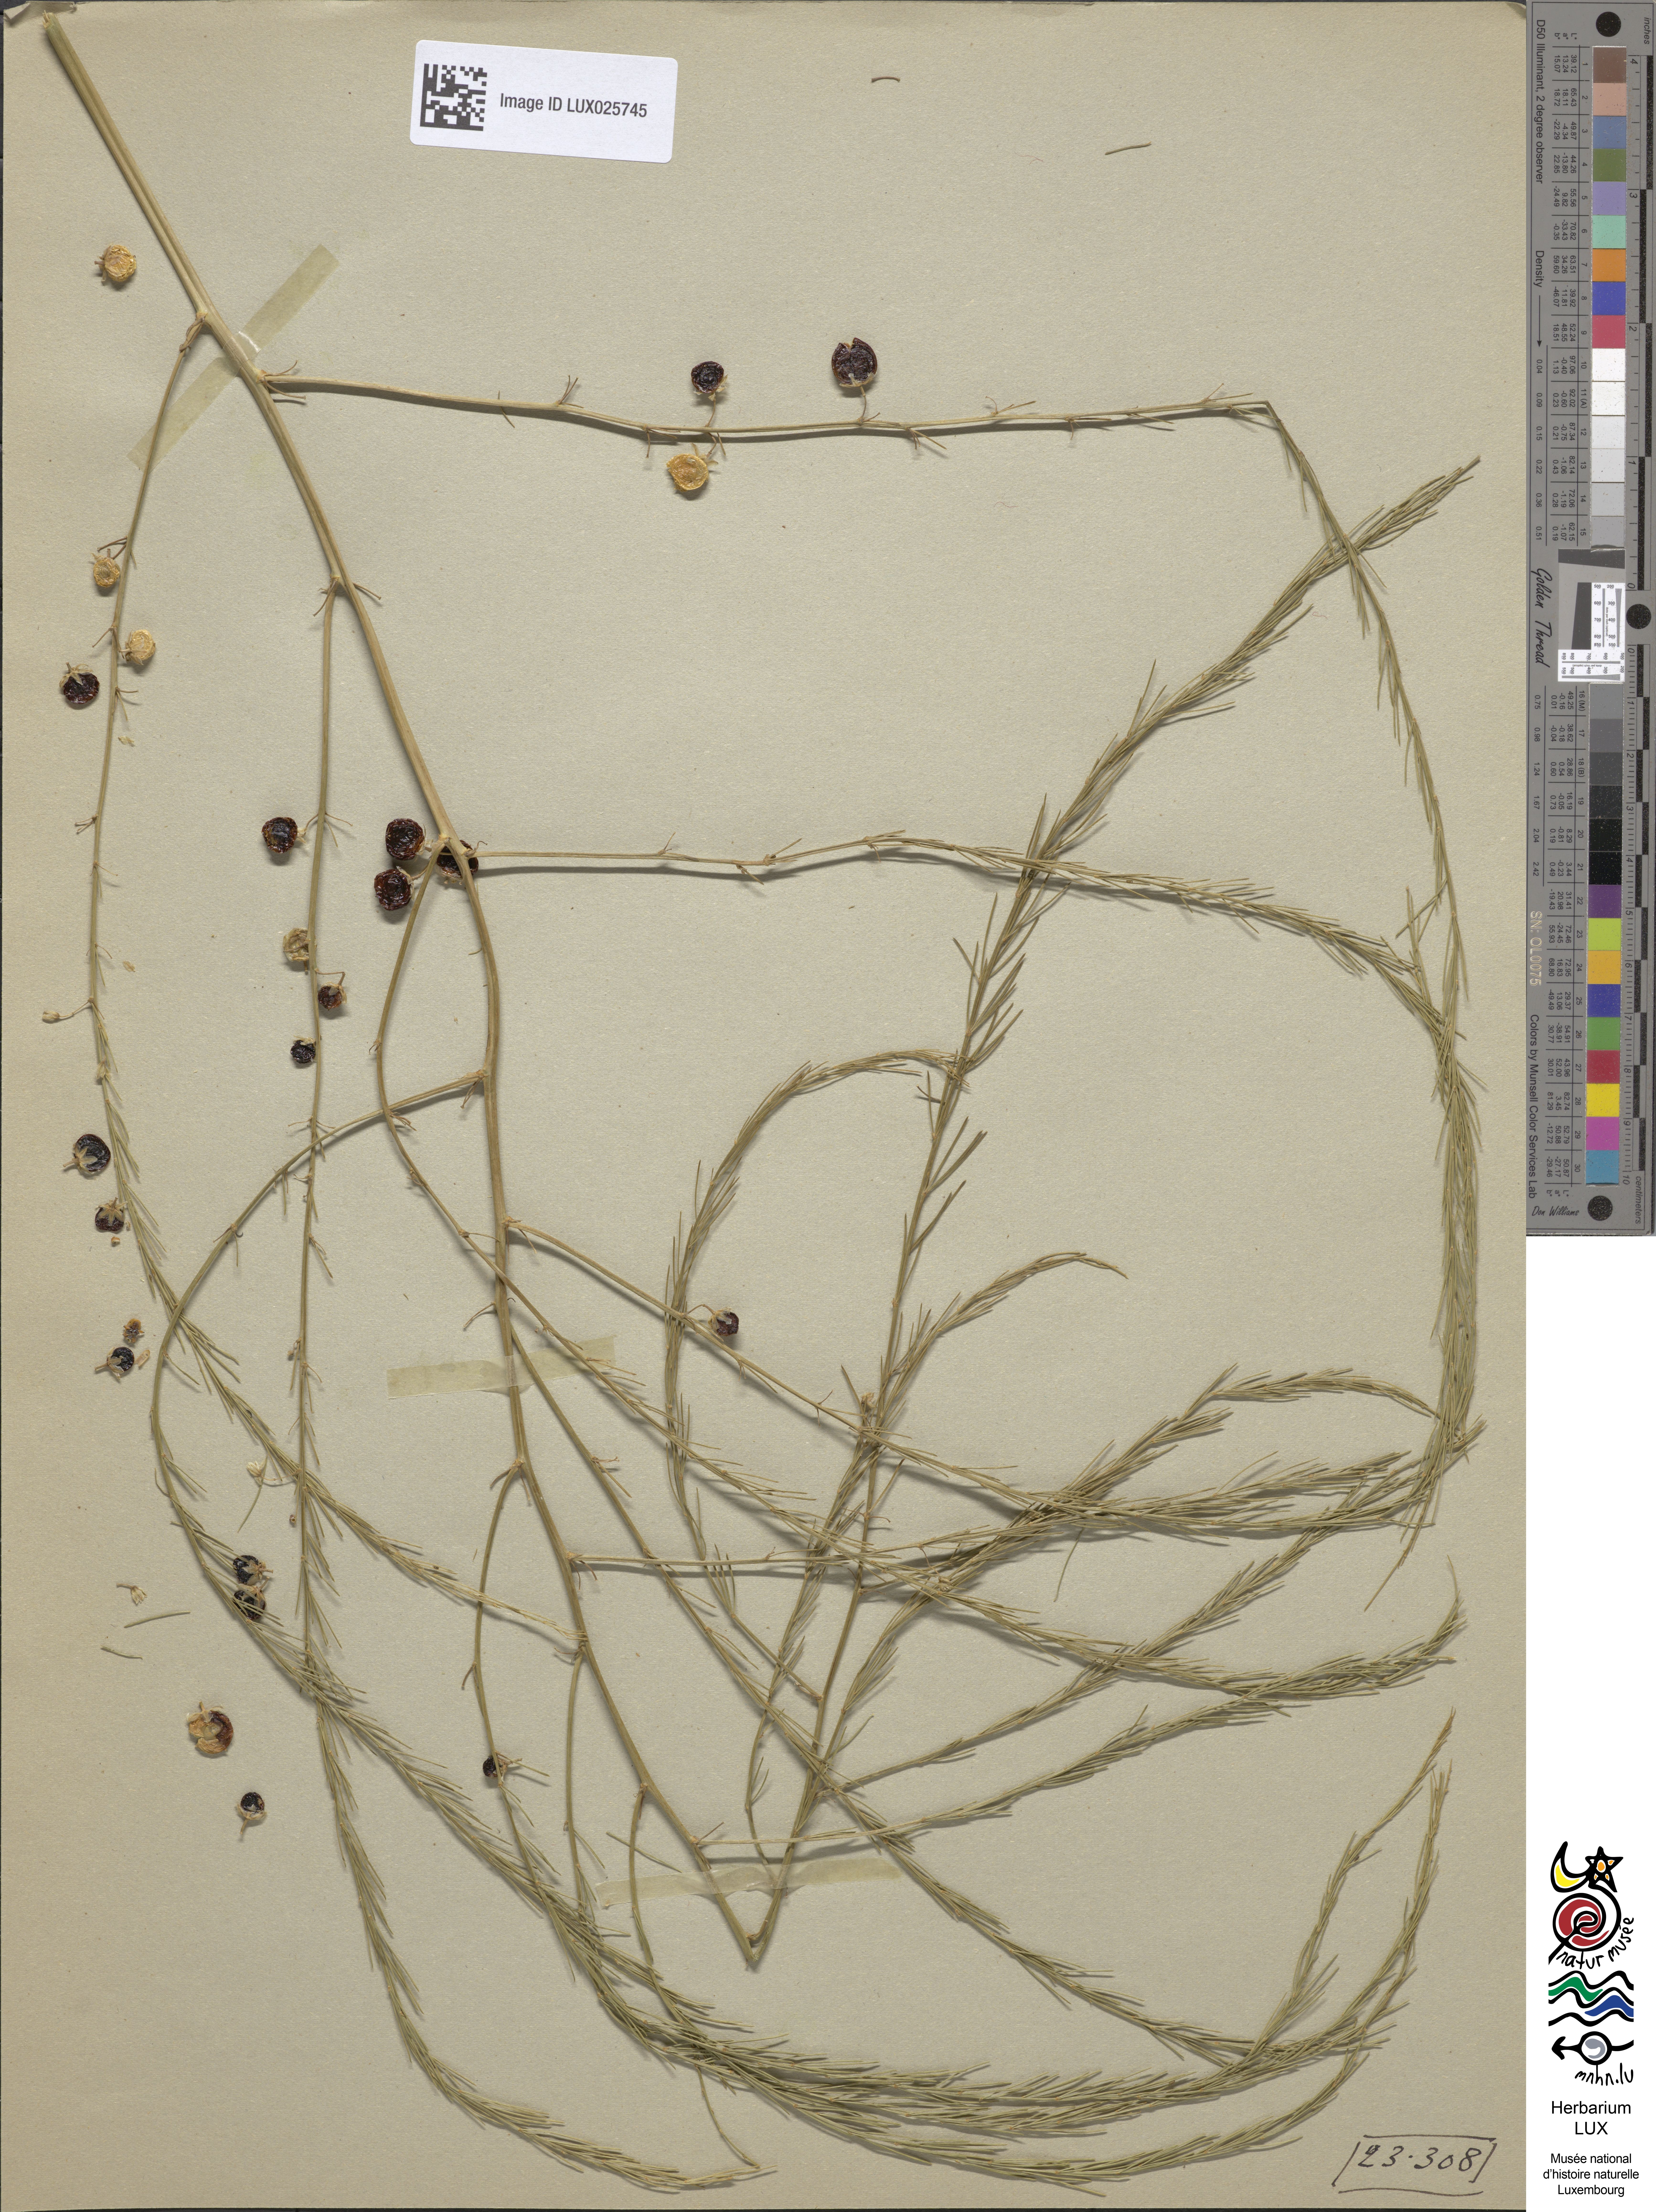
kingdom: Plantae
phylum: Tracheophyta
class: Liliopsida
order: Asparagales
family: Asparagaceae
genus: Asparagus
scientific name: Asparagus officinalis
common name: Garden asparagus
